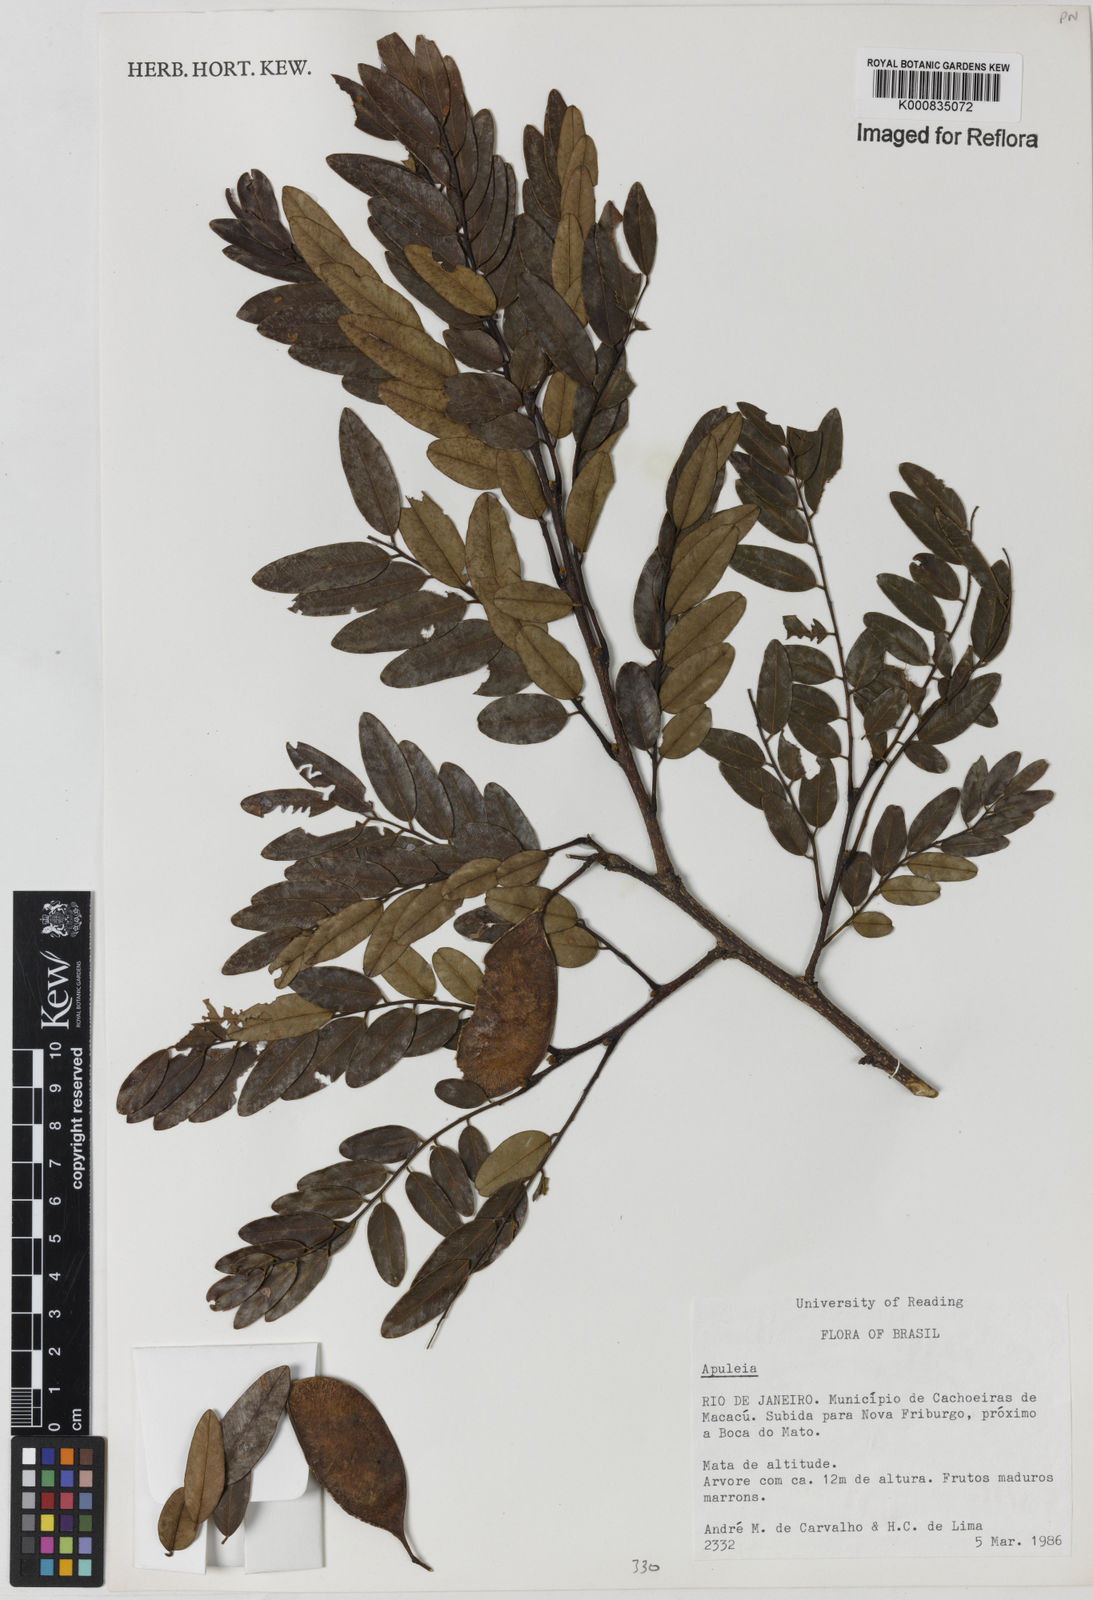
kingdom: Plantae
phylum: Tracheophyta
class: Magnoliopsida
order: Asterales
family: Asteraceae
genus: Berkheya
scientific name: Berkheya
